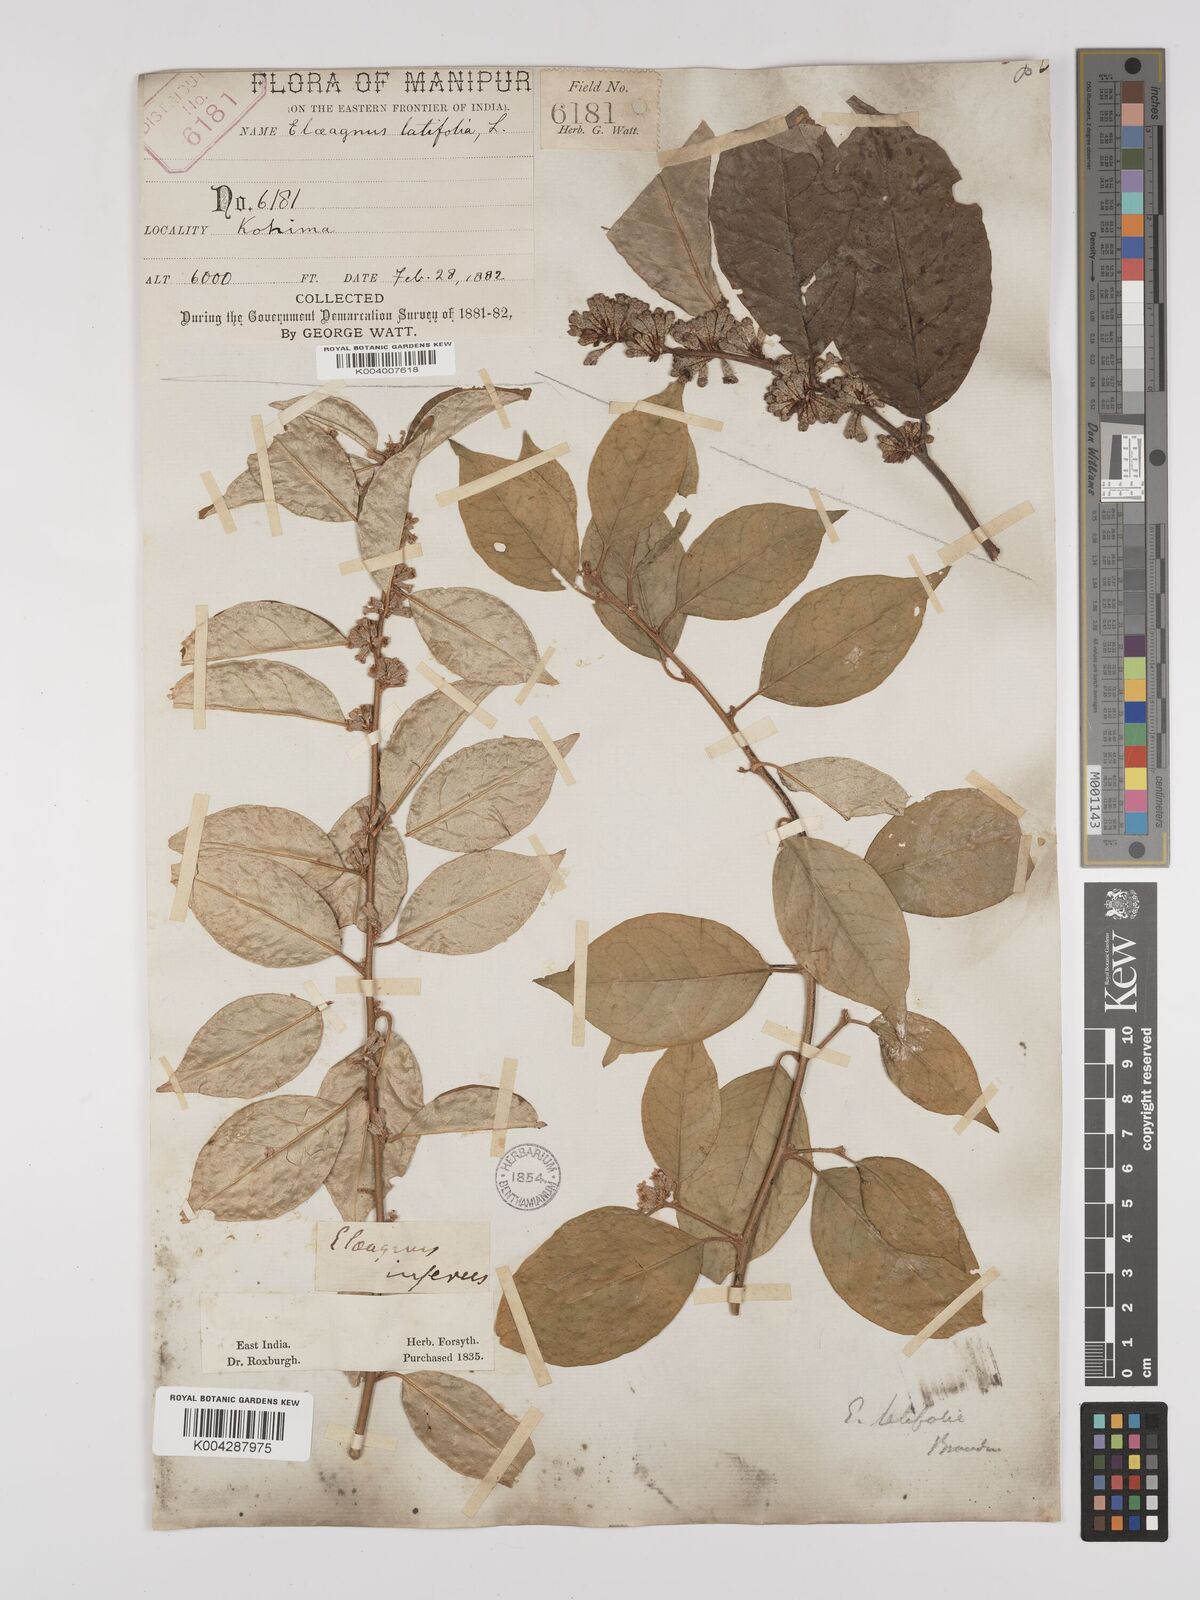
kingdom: Plantae
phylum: Tracheophyta
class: Magnoliopsida
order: Rosales
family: Elaeagnaceae
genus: Elaeagnus
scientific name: Elaeagnus latifolia
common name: Oleaster
